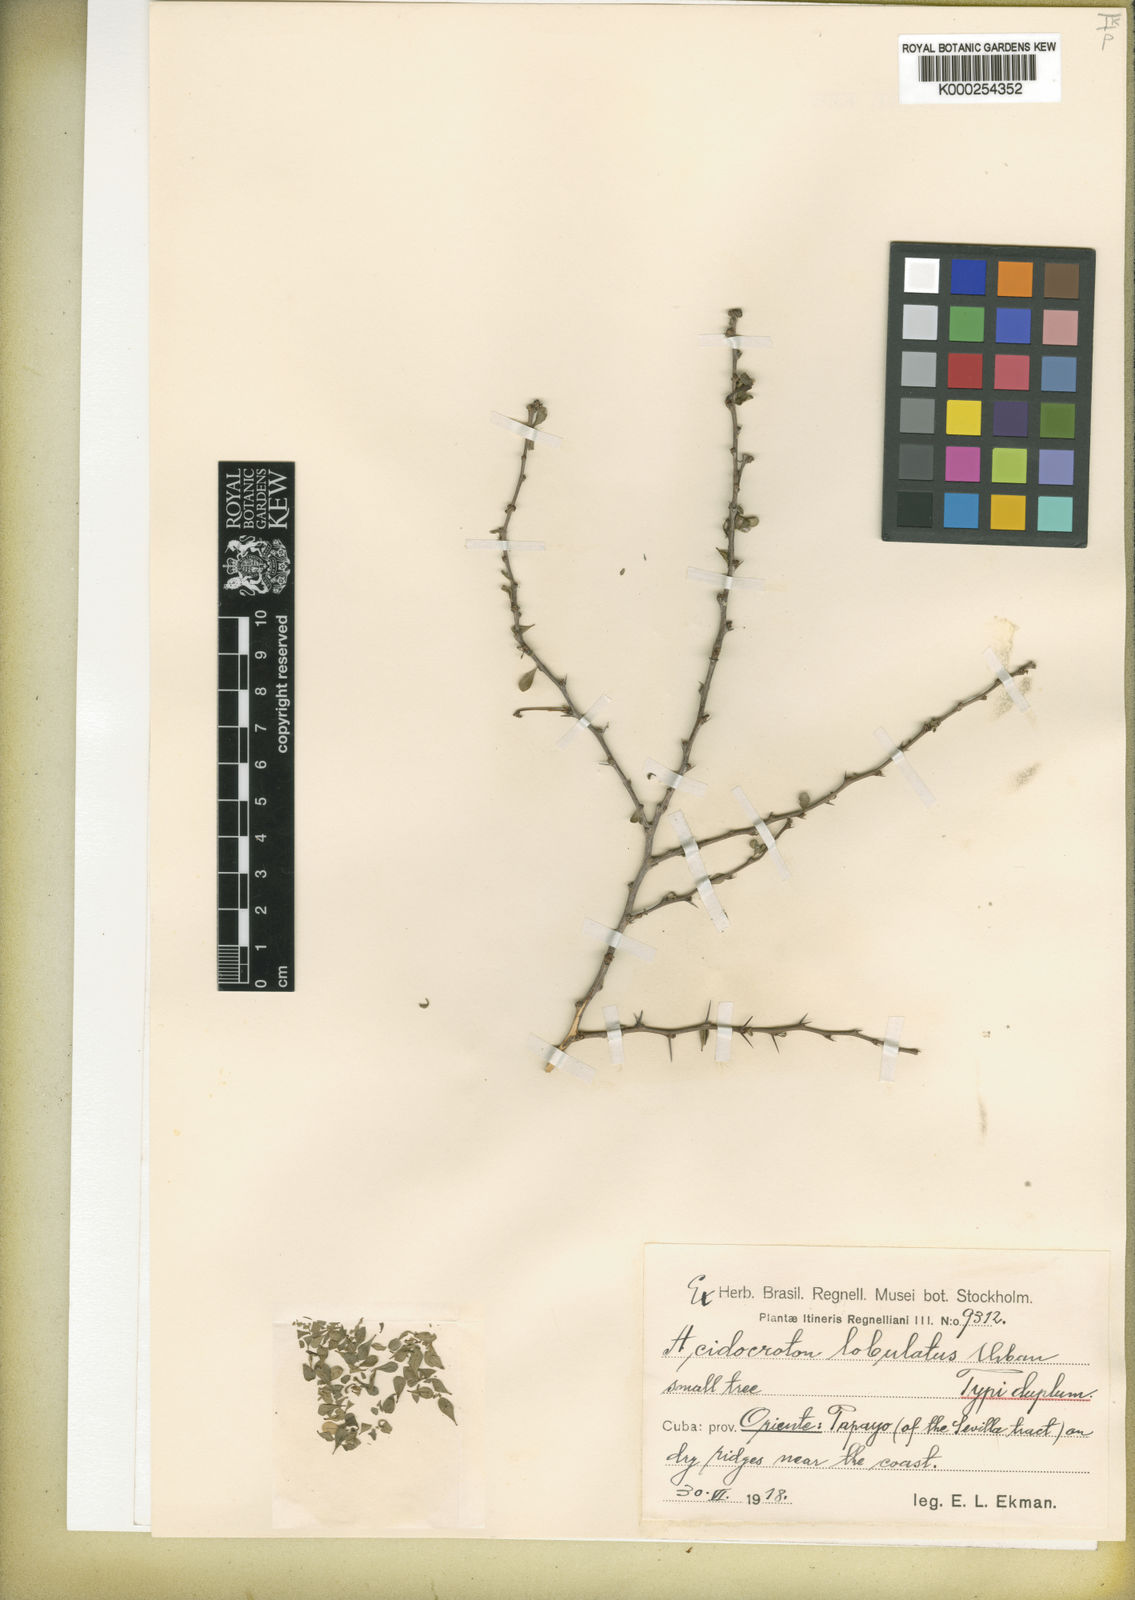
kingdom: Plantae
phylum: Tracheophyta
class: Magnoliopsida
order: Malpighiales
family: Euphorbiaceae
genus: Acidocroton
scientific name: Acidocroton lobulatus
